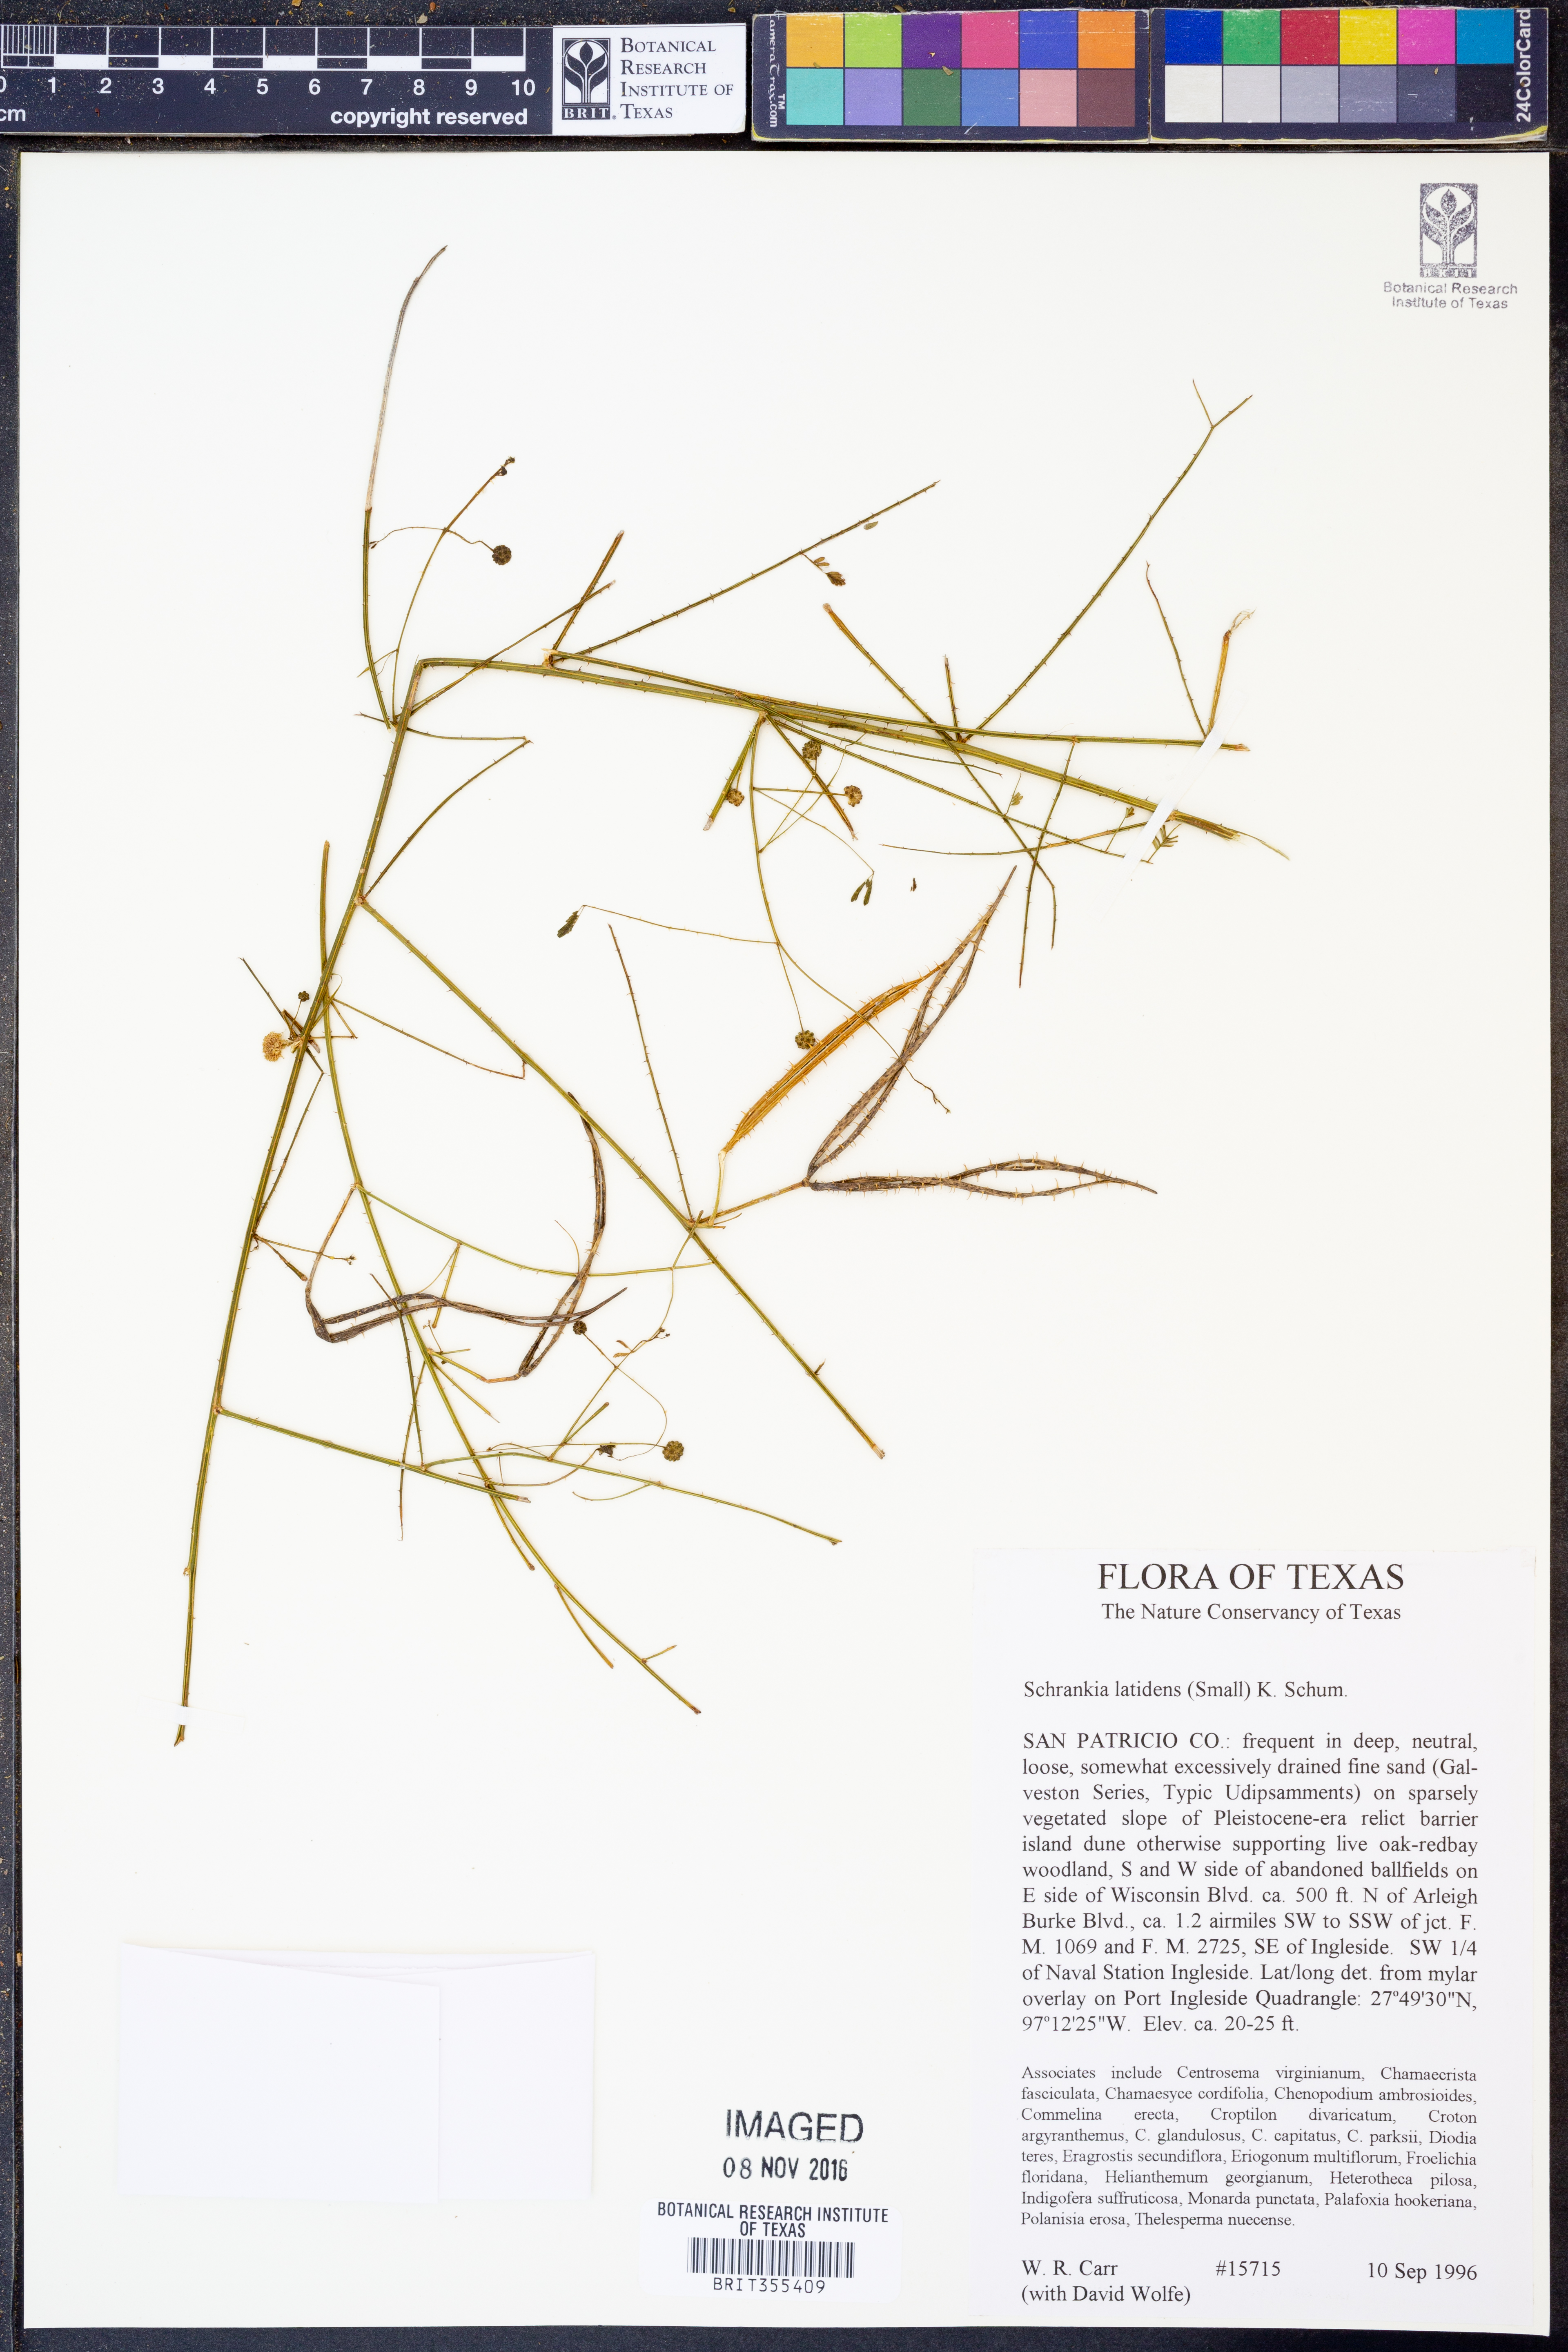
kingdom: Plantae
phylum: Tracheophyta
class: Magnoliopsida
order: Fabales
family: Fabaceae
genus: Mimosa
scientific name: Mimosa quadrivalvis
